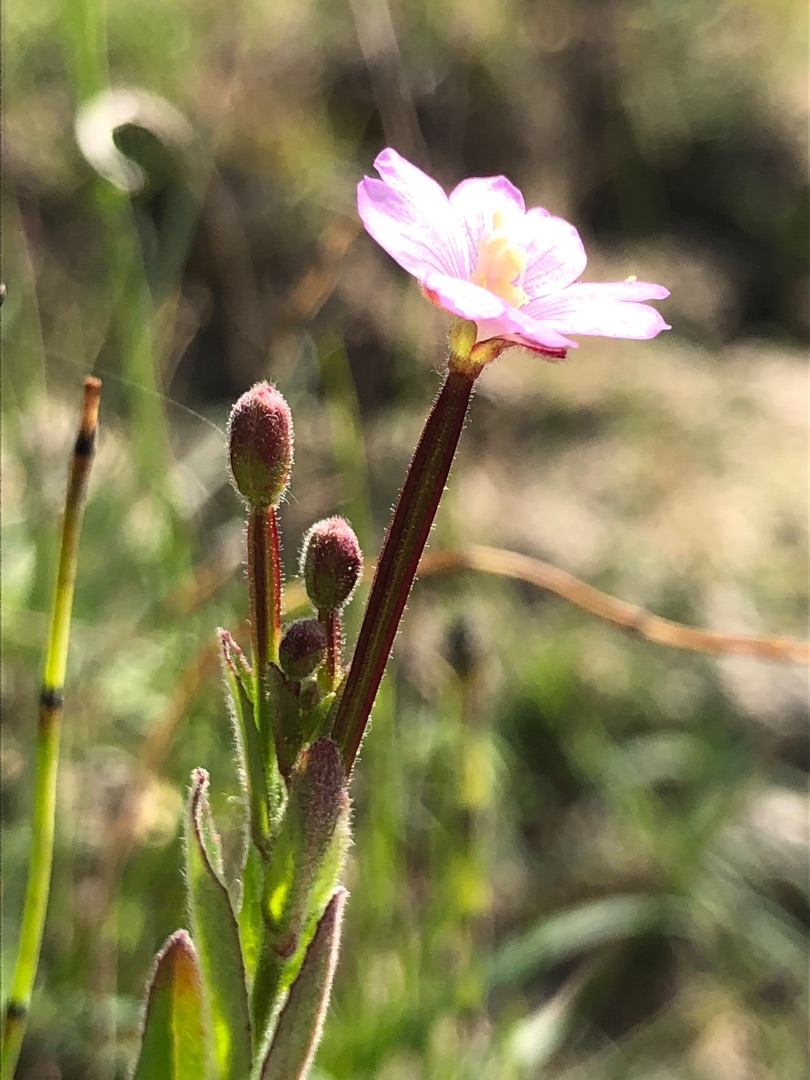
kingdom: Plantae
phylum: Tracheophyta
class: Magnoliopsida
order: Myrtales
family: Onagraceae
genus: Epilobium
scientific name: Epilobium parviflorum
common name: Dunet dueurt
